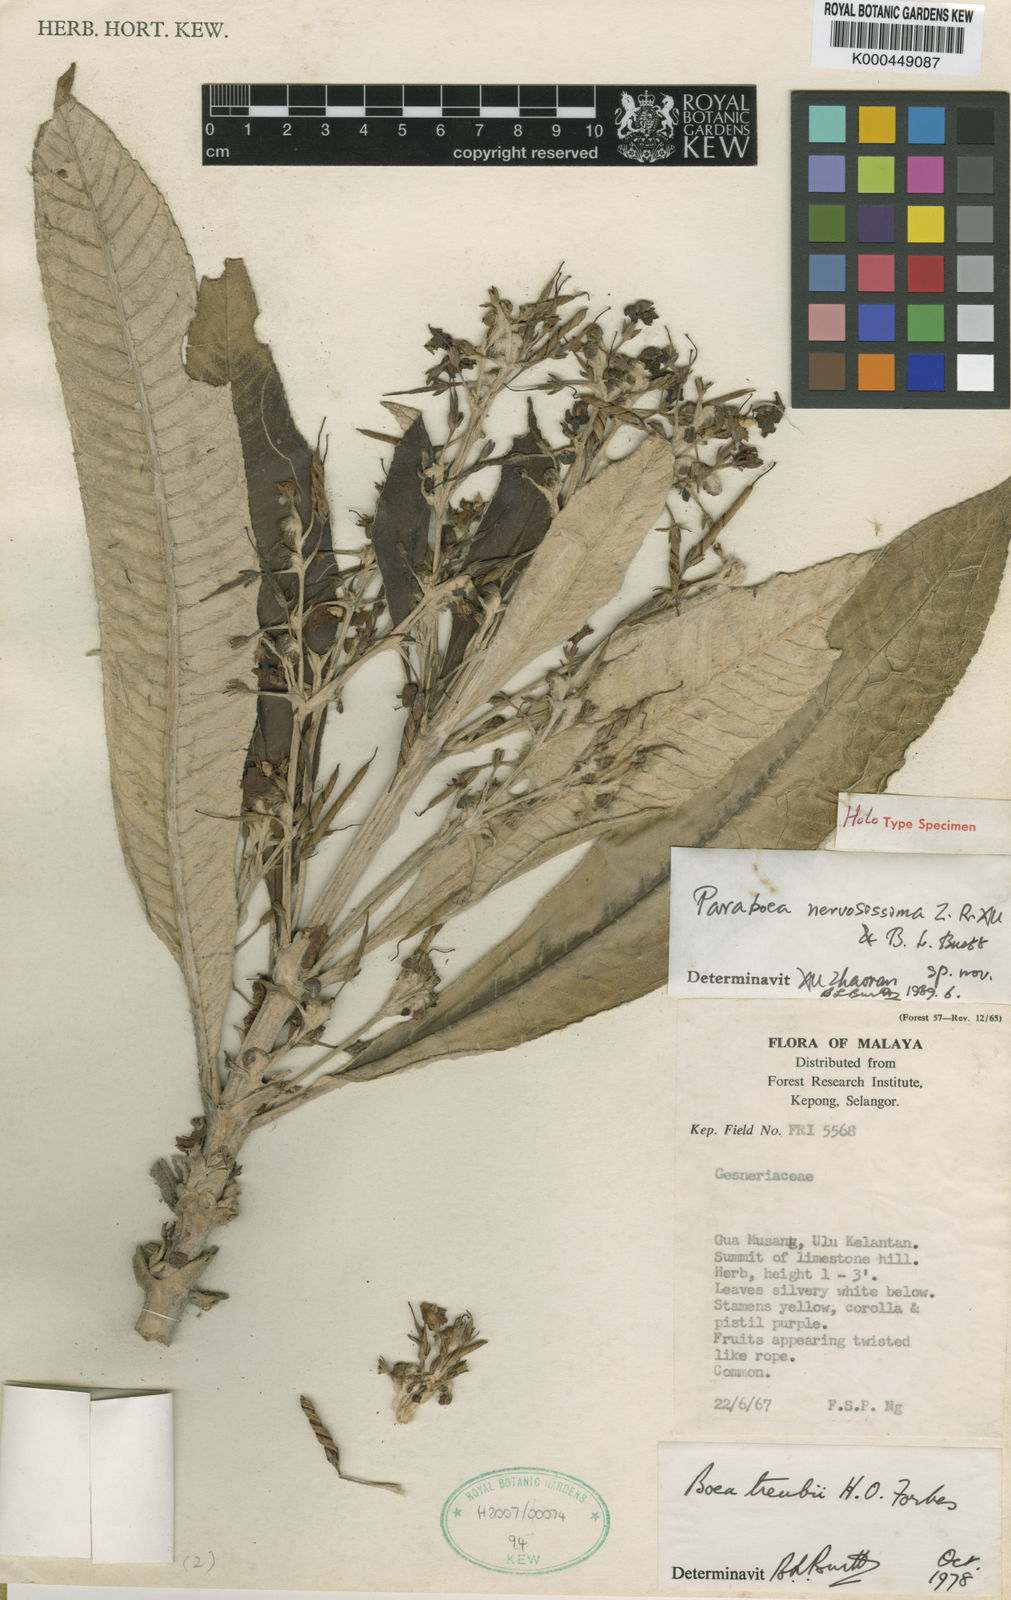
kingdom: Plantae
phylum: Tracheophyta
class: Magnoliopsida
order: Lamiales
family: Gesneriaceae
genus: Paraboea
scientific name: Paraboea nervosissima
